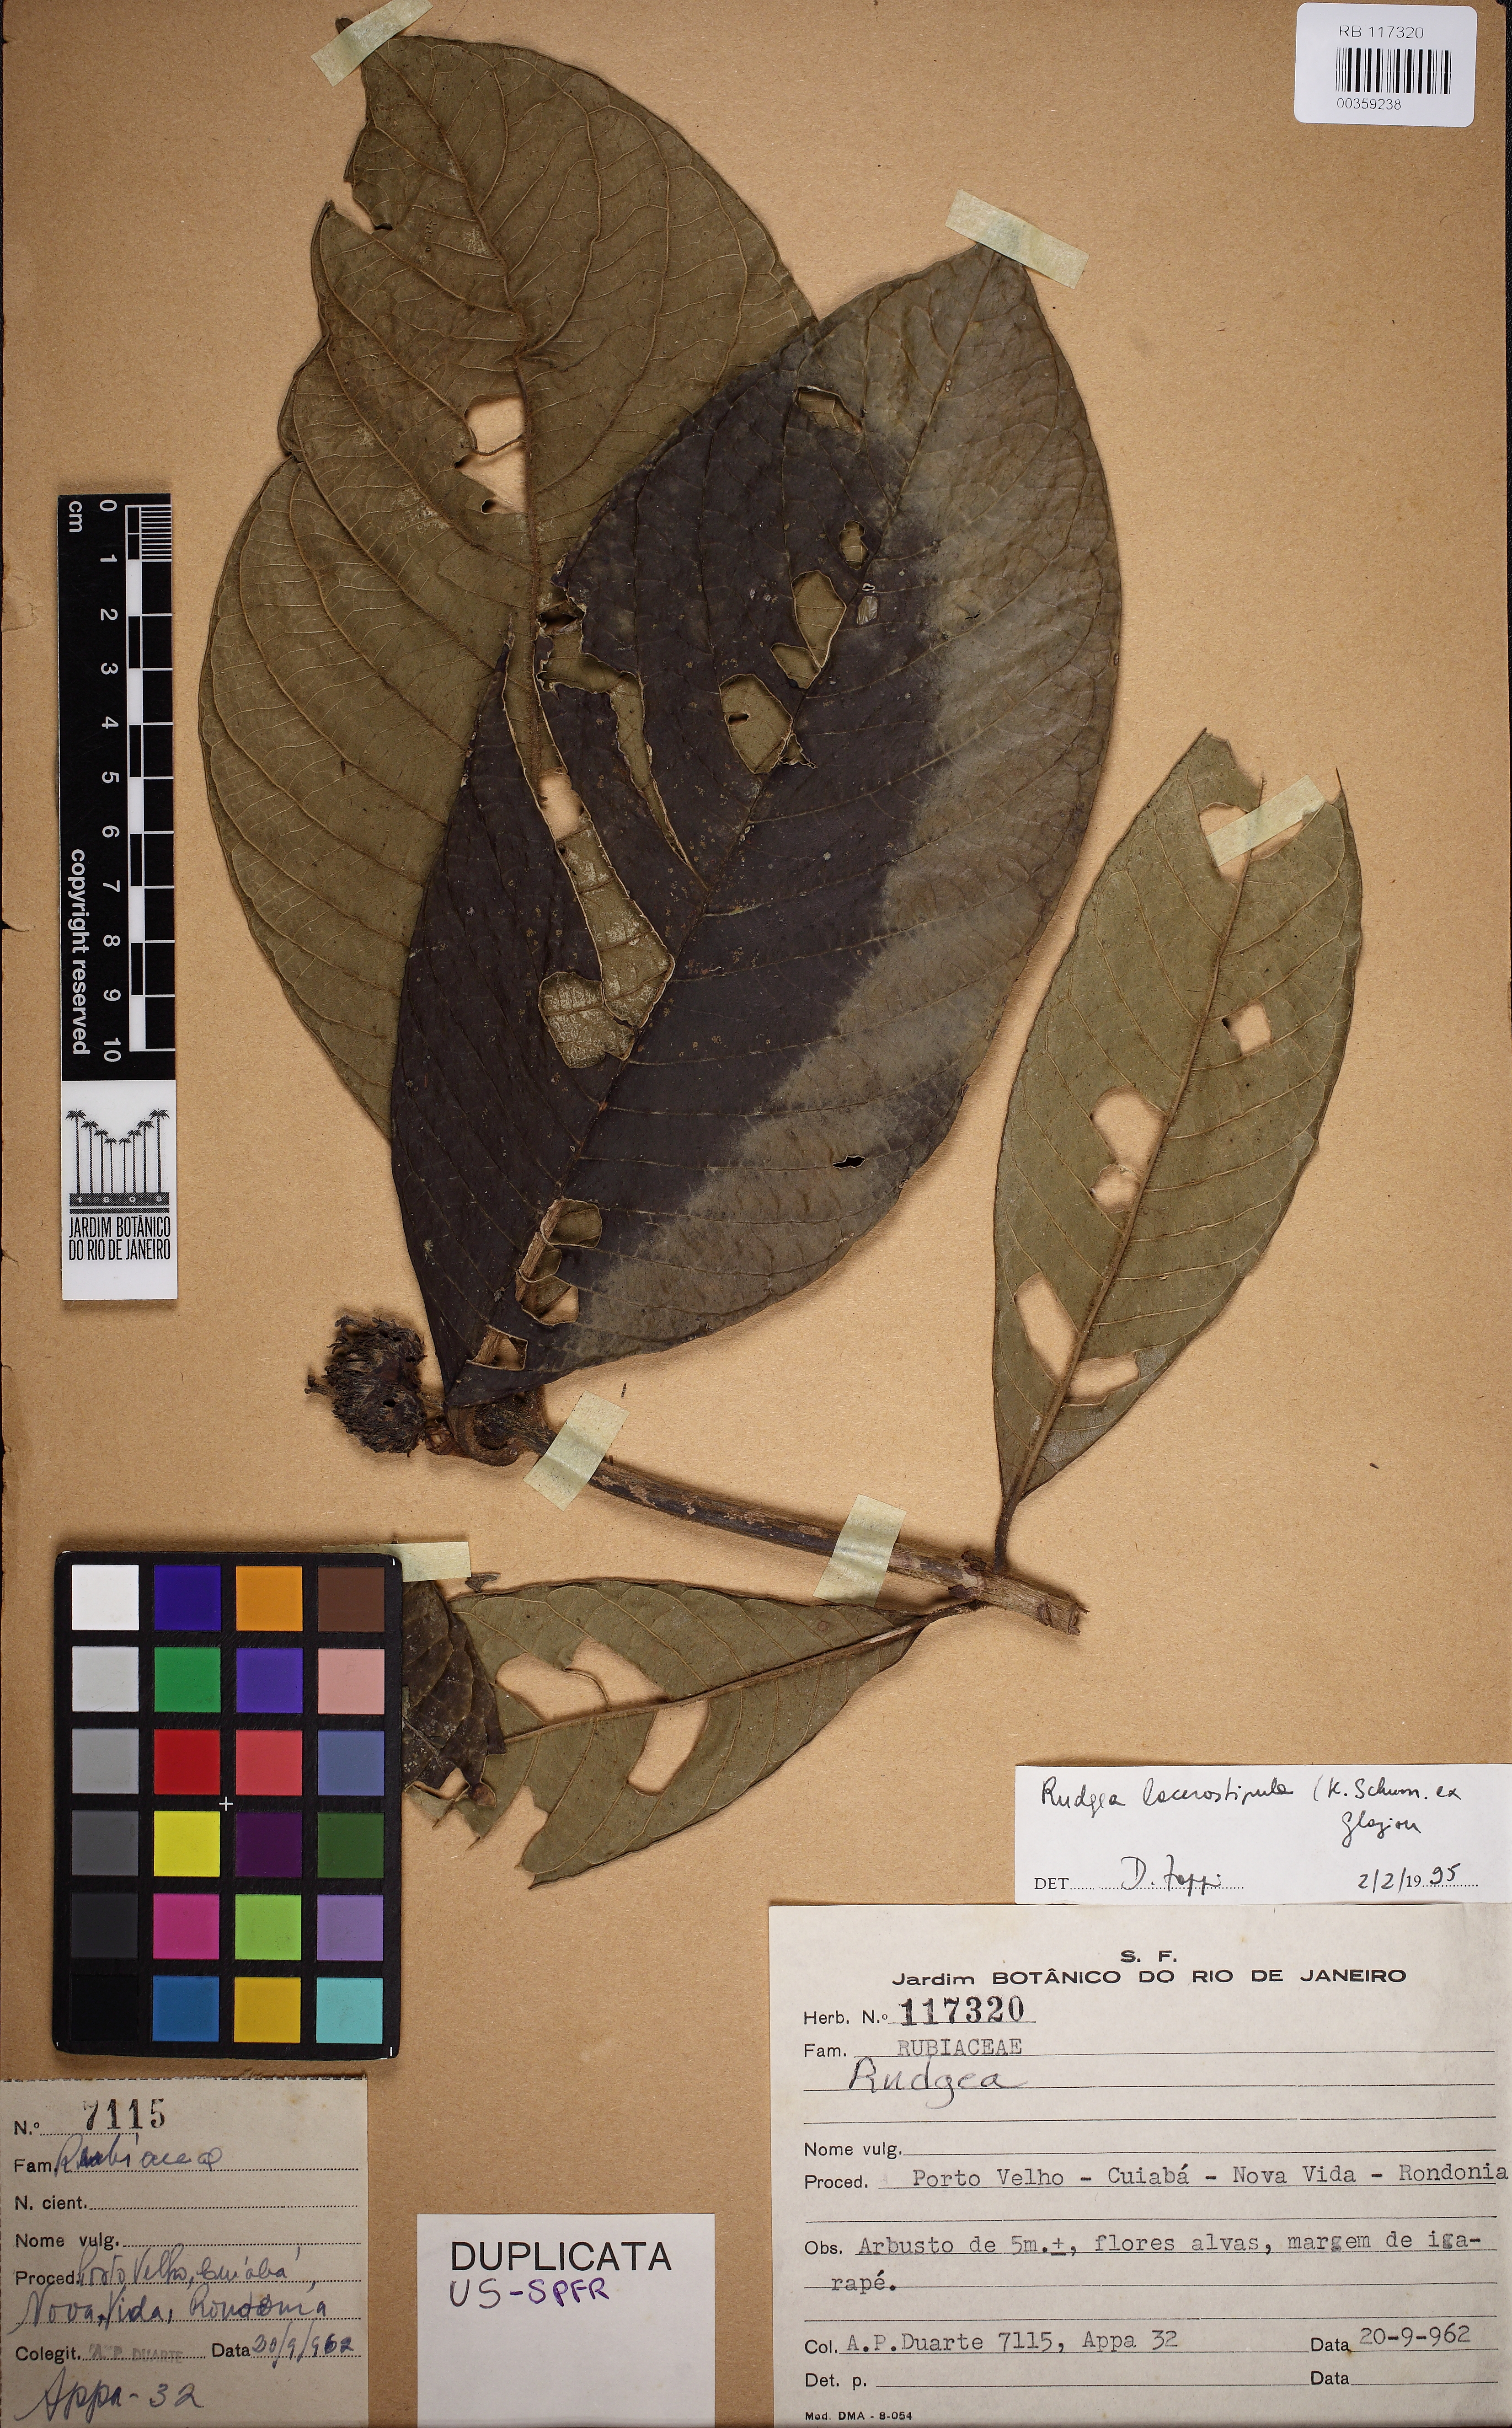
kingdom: Plantae
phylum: Tracheophyta
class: Magnoliopsida
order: Gentianales
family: Rubiaceae
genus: Rudgea
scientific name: Rudgea lacerostipula
